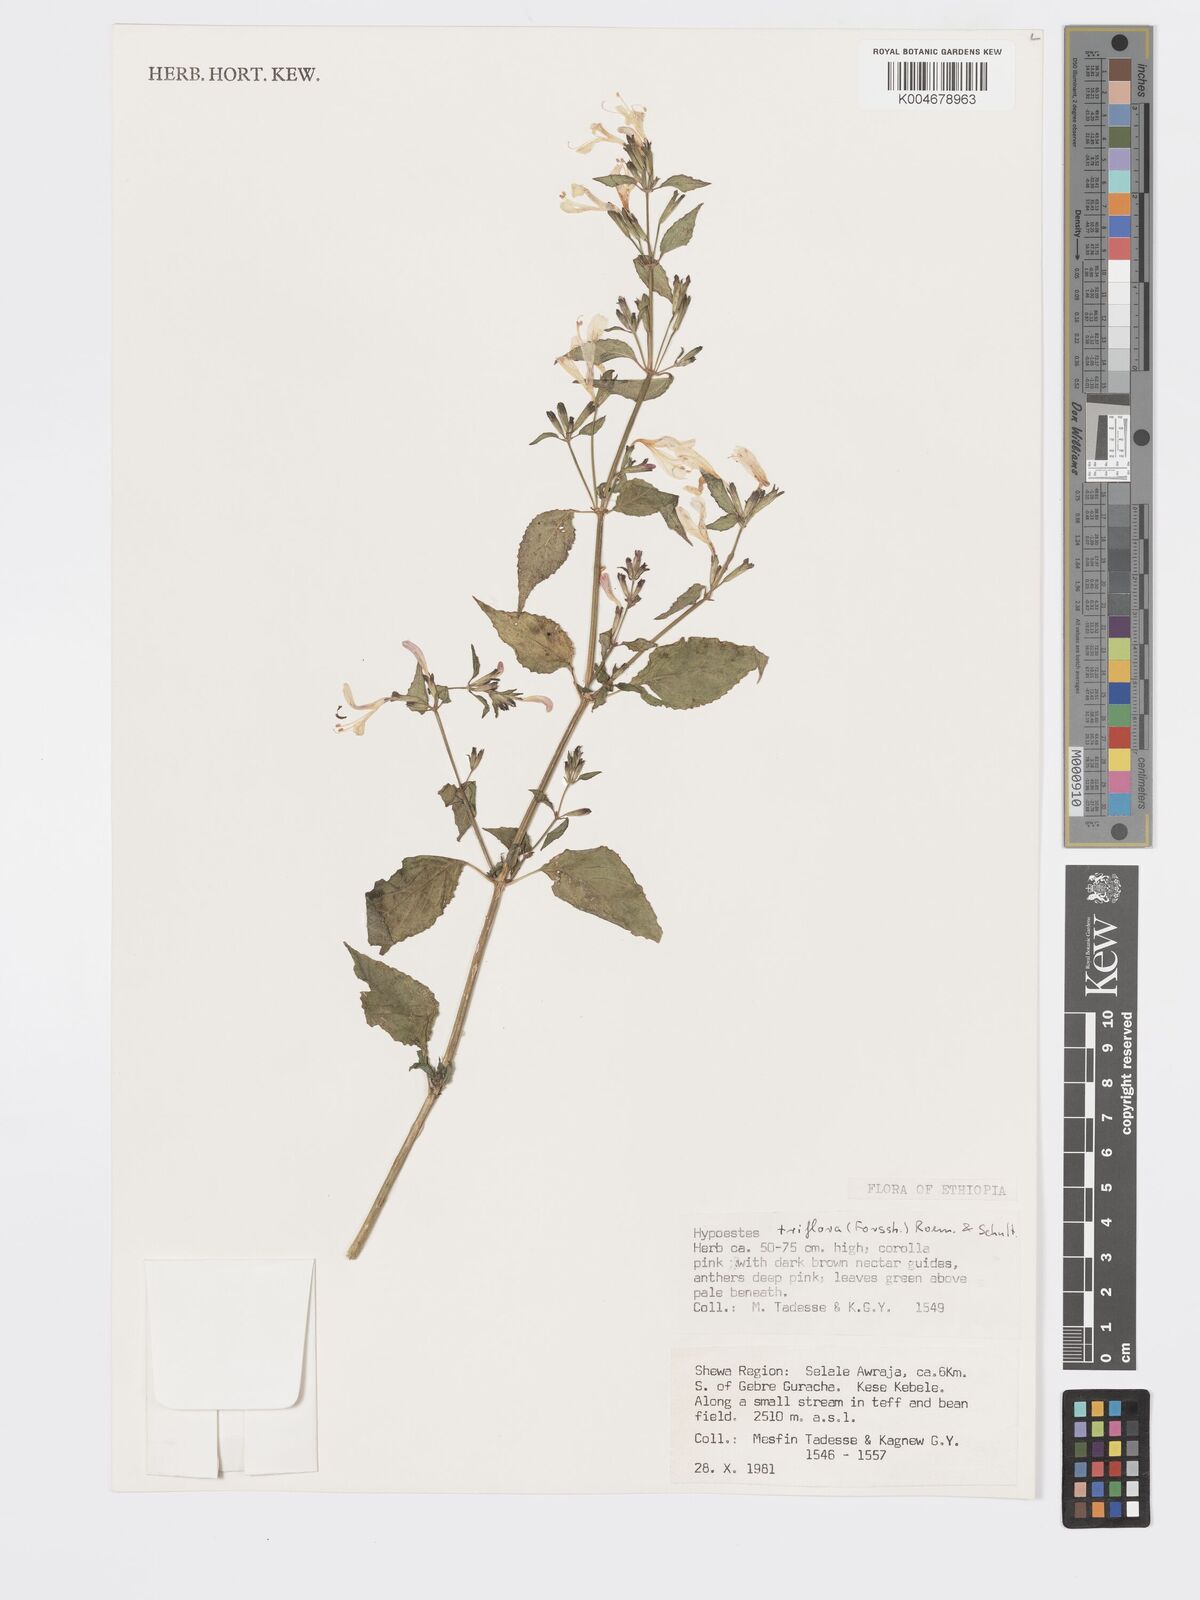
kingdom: Plantae
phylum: Tracheophyta
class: Magnoliopsida
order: Lamiales
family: Acanthaceae
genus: Hypoestes
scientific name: Hypoestes triflora
